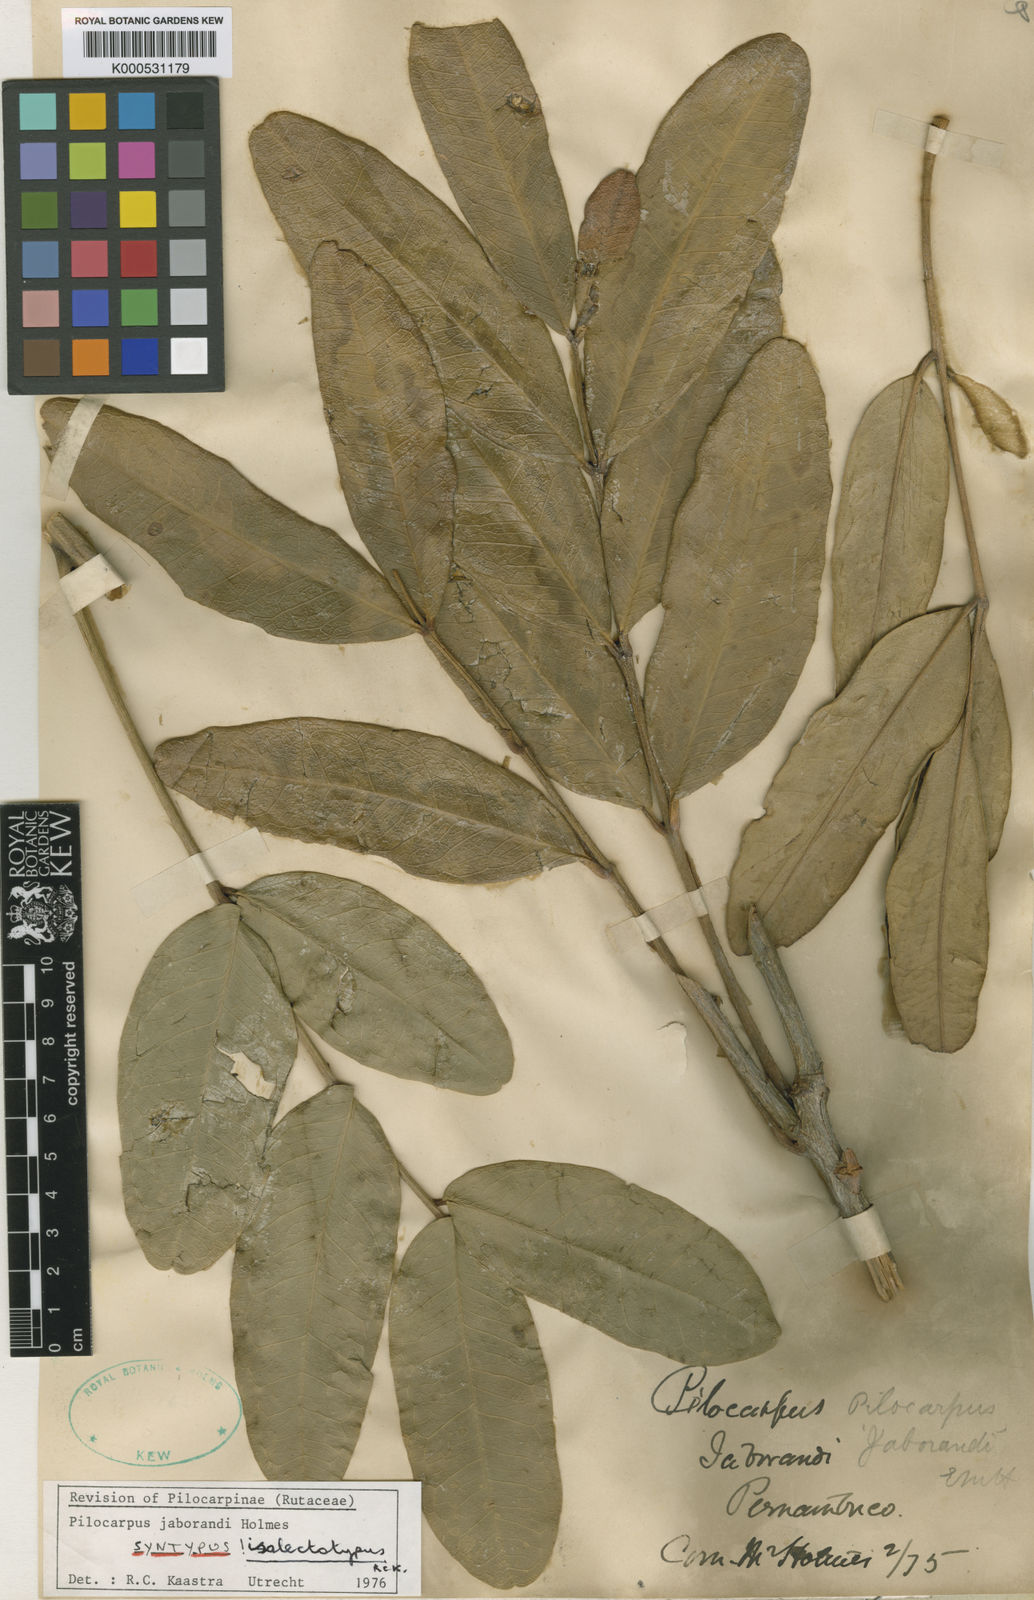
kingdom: Plantae
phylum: Tracheophyta
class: Magnoliopsida
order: Sapindales
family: Rutaceae
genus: Pilocarpus
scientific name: Pilocarpus jaborandi
